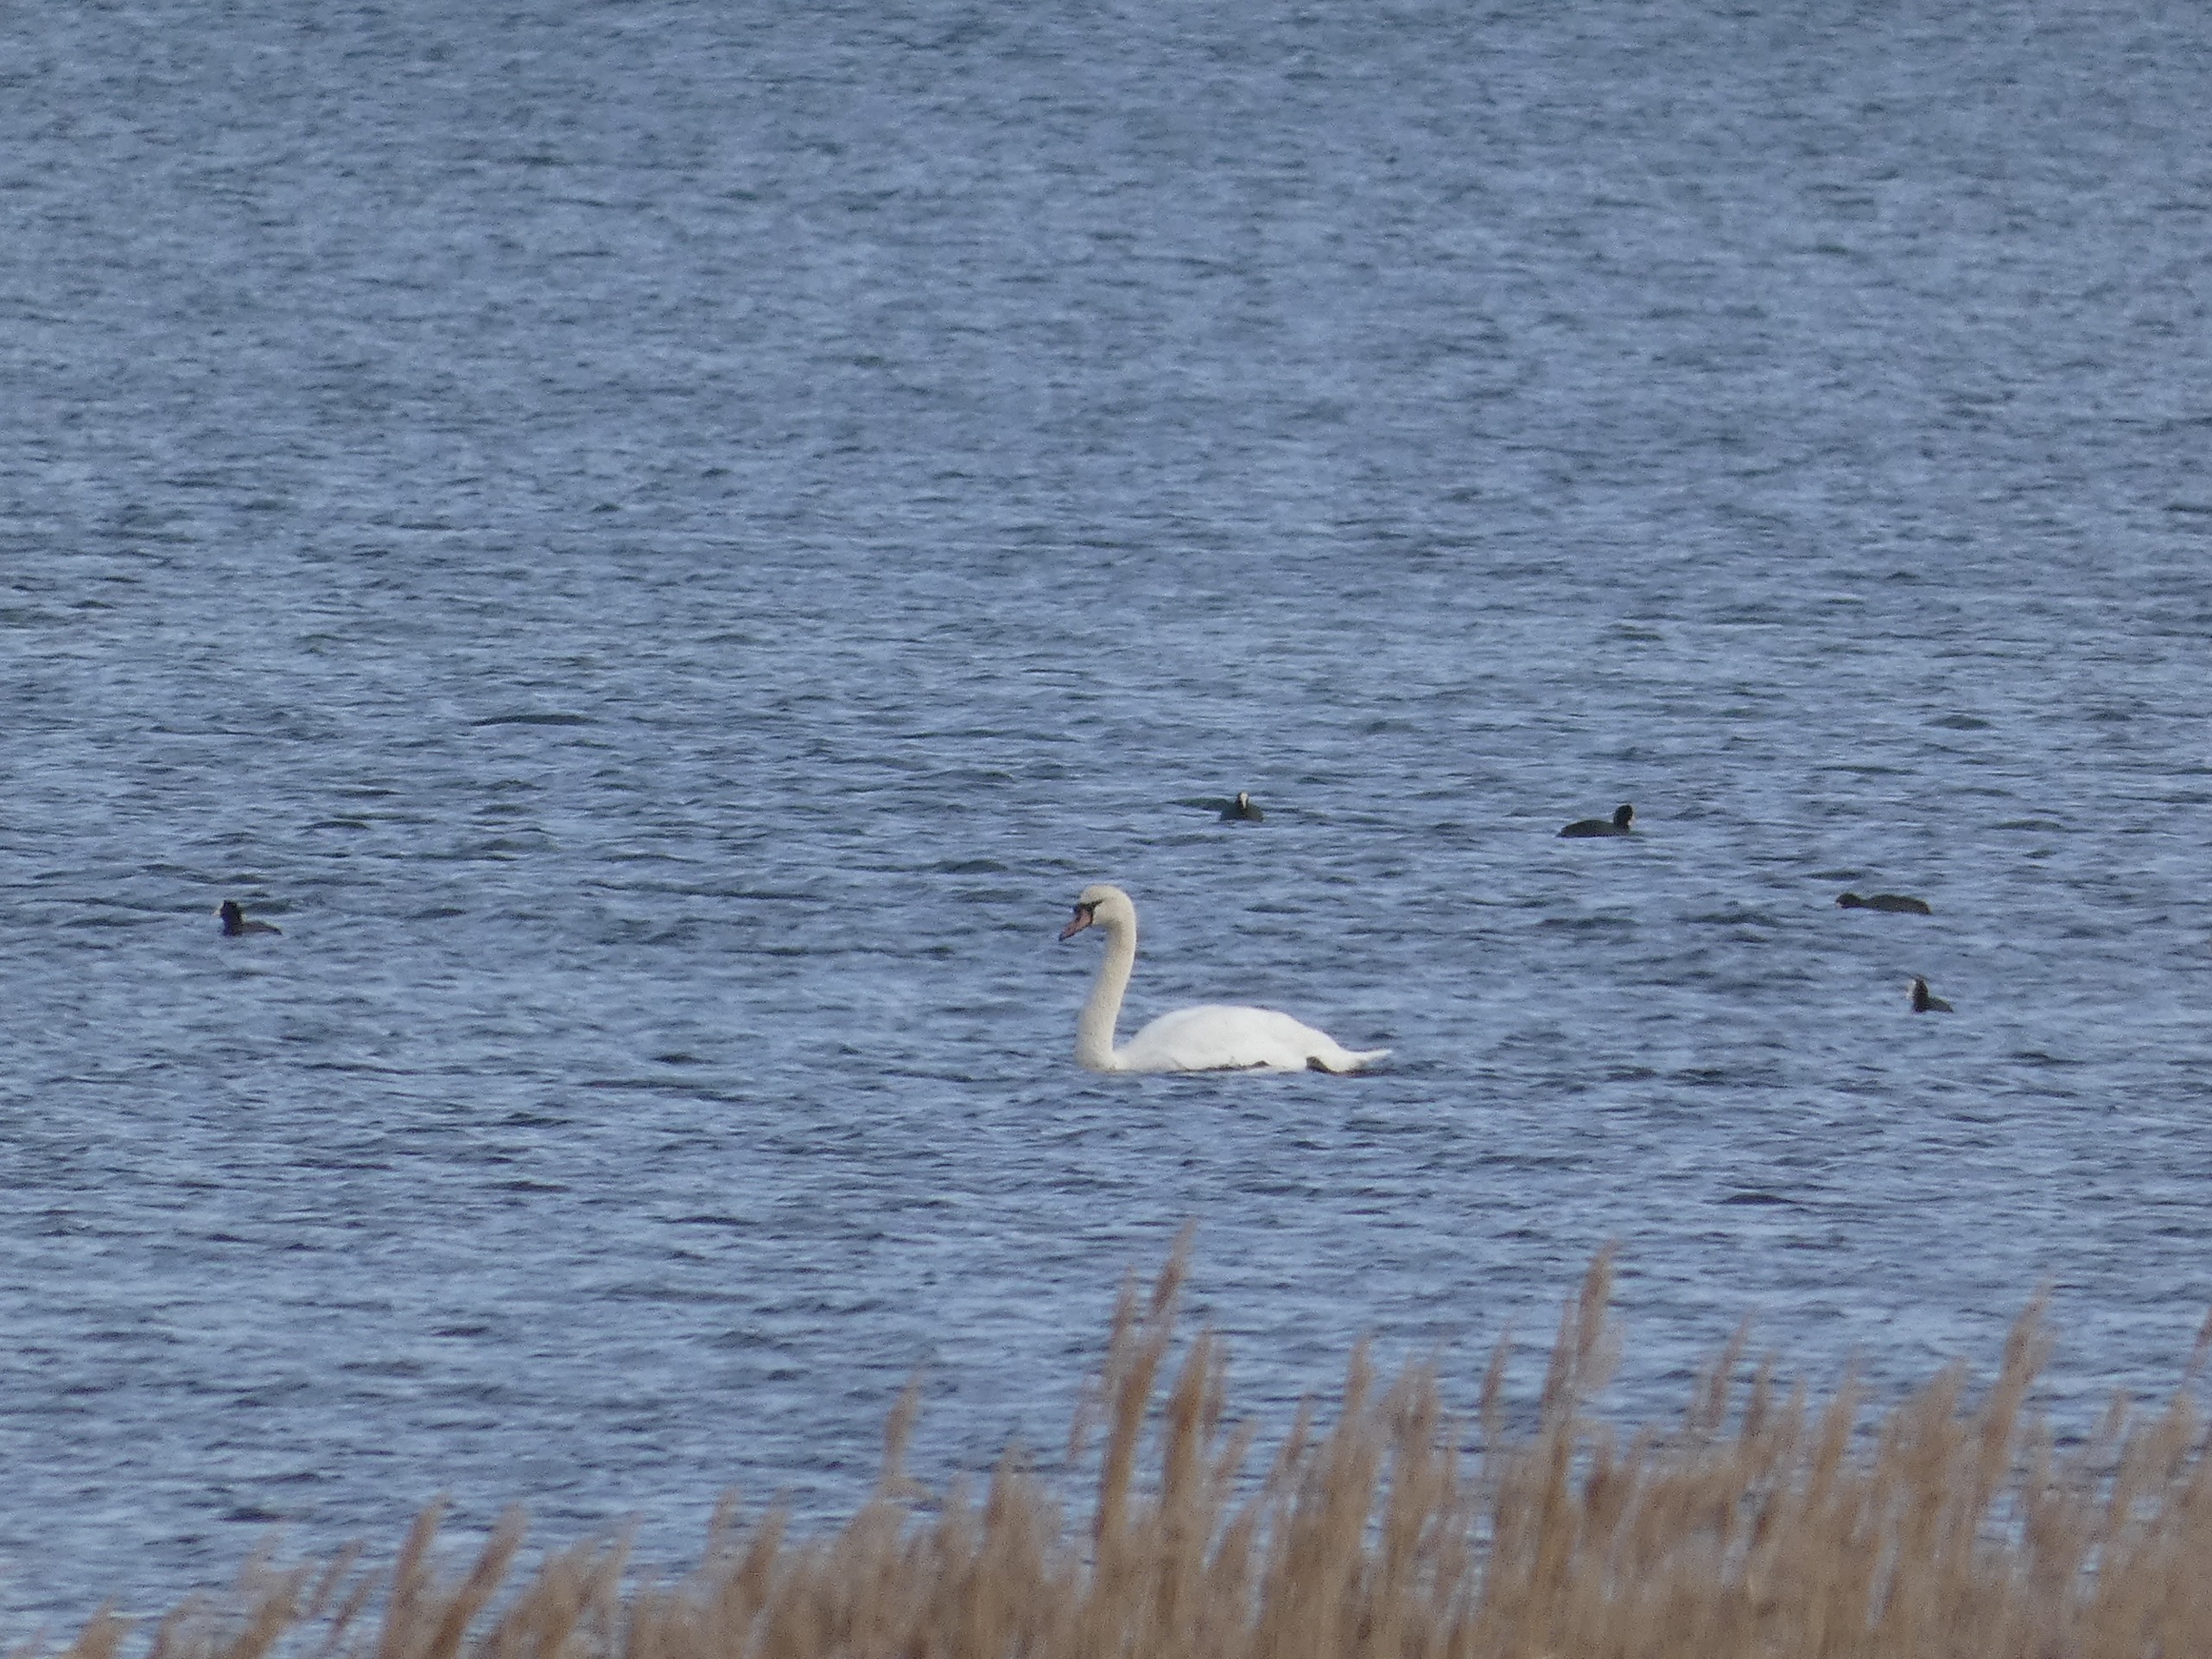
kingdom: Animalia
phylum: Chordata
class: Aves
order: Anseriformes
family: Anatidae
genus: Cygnus
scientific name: Cygnus olor
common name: Knopsvane
